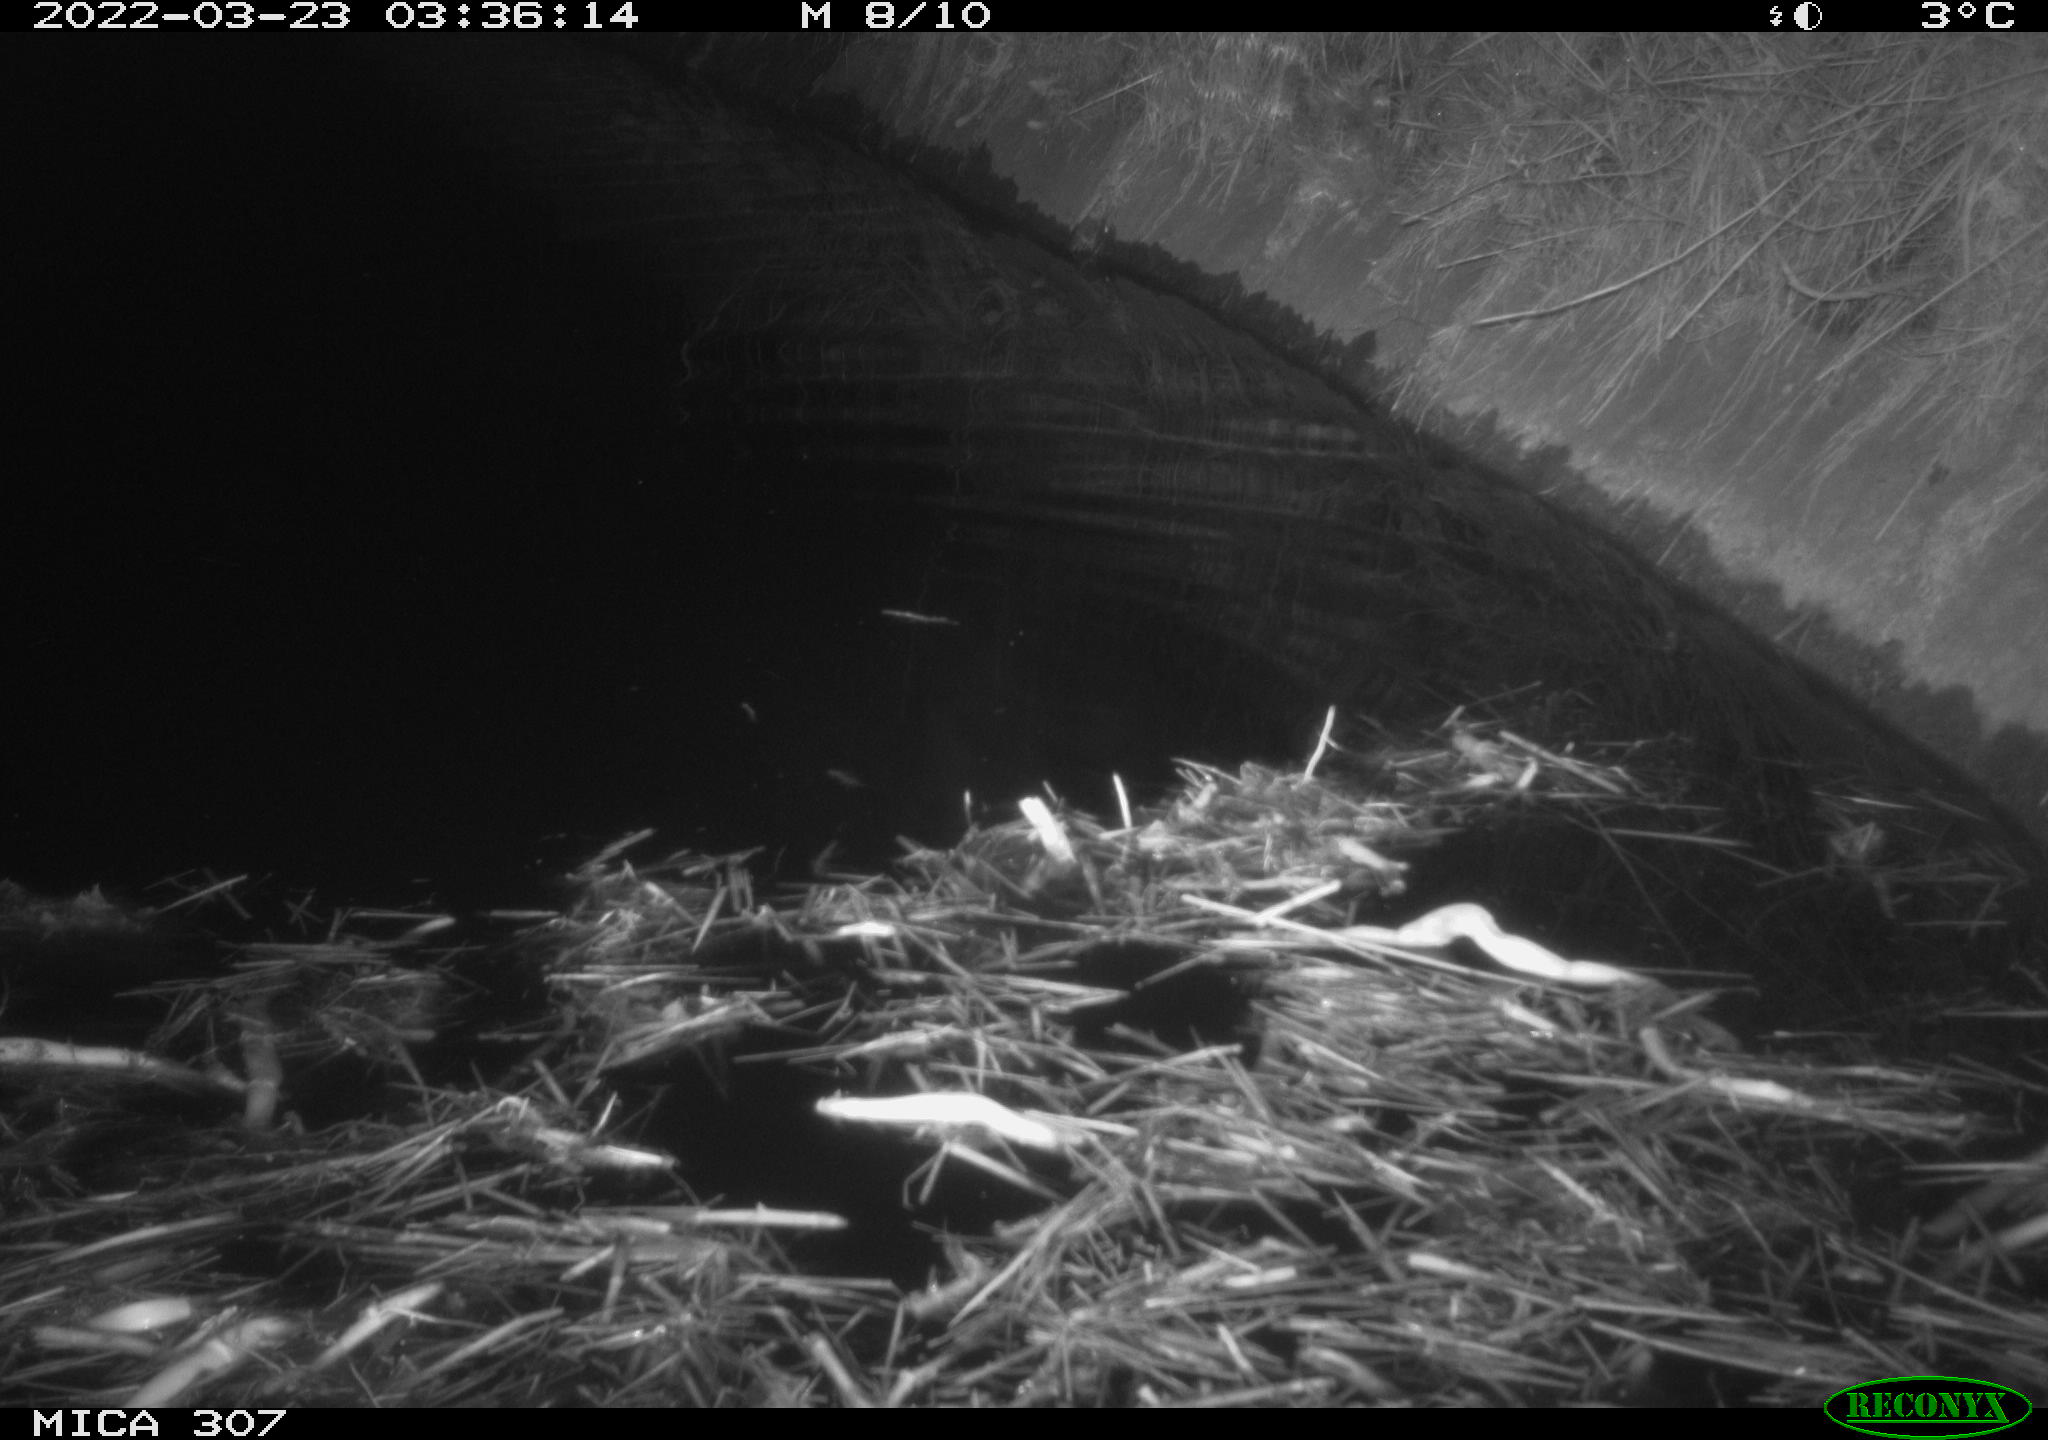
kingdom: Animalia
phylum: Chordata
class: Mammalia
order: Rodentia
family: Cricetidae
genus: Ondatra
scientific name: Ondatra zibethicus
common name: Muskrat
